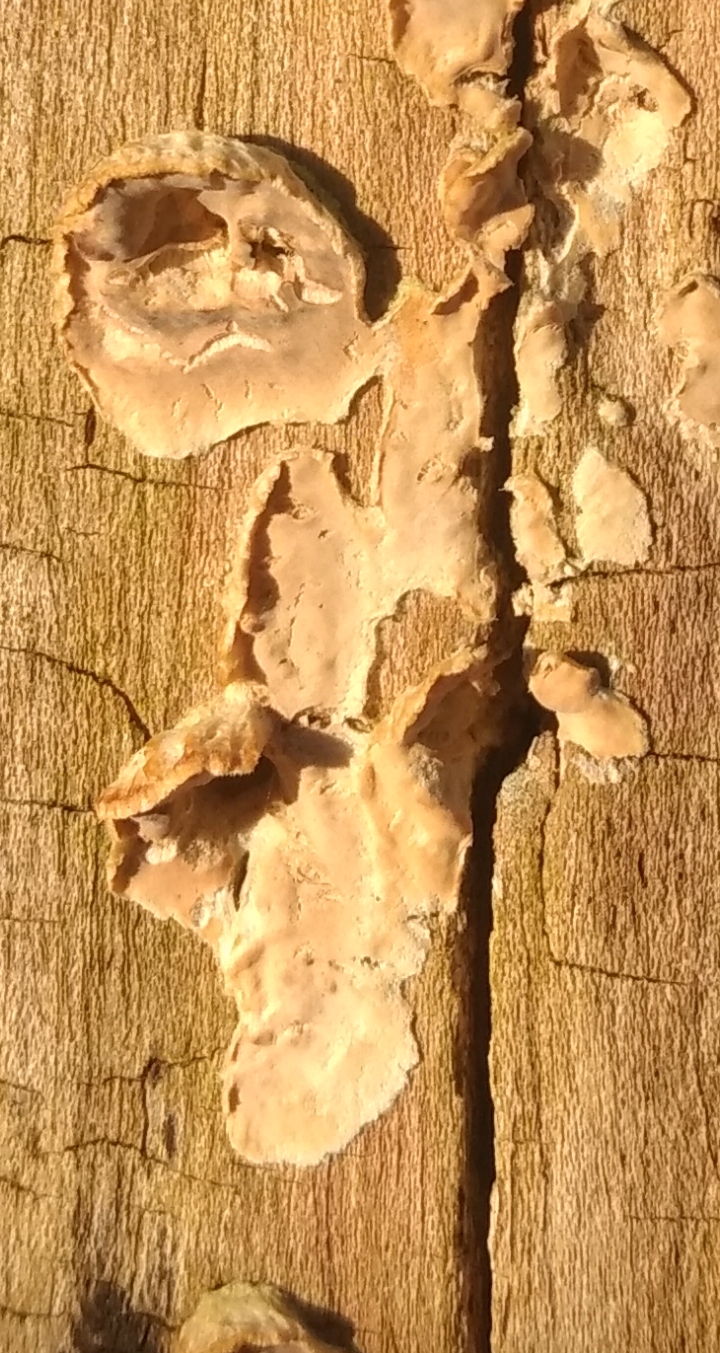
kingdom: Fungi
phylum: Basidiomycota
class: Agaricomycetes
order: Agaricales
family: Physalacriaceae
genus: Cylindrobasidium
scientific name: Cylindrobasidium evolvens
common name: sprækkehinde
